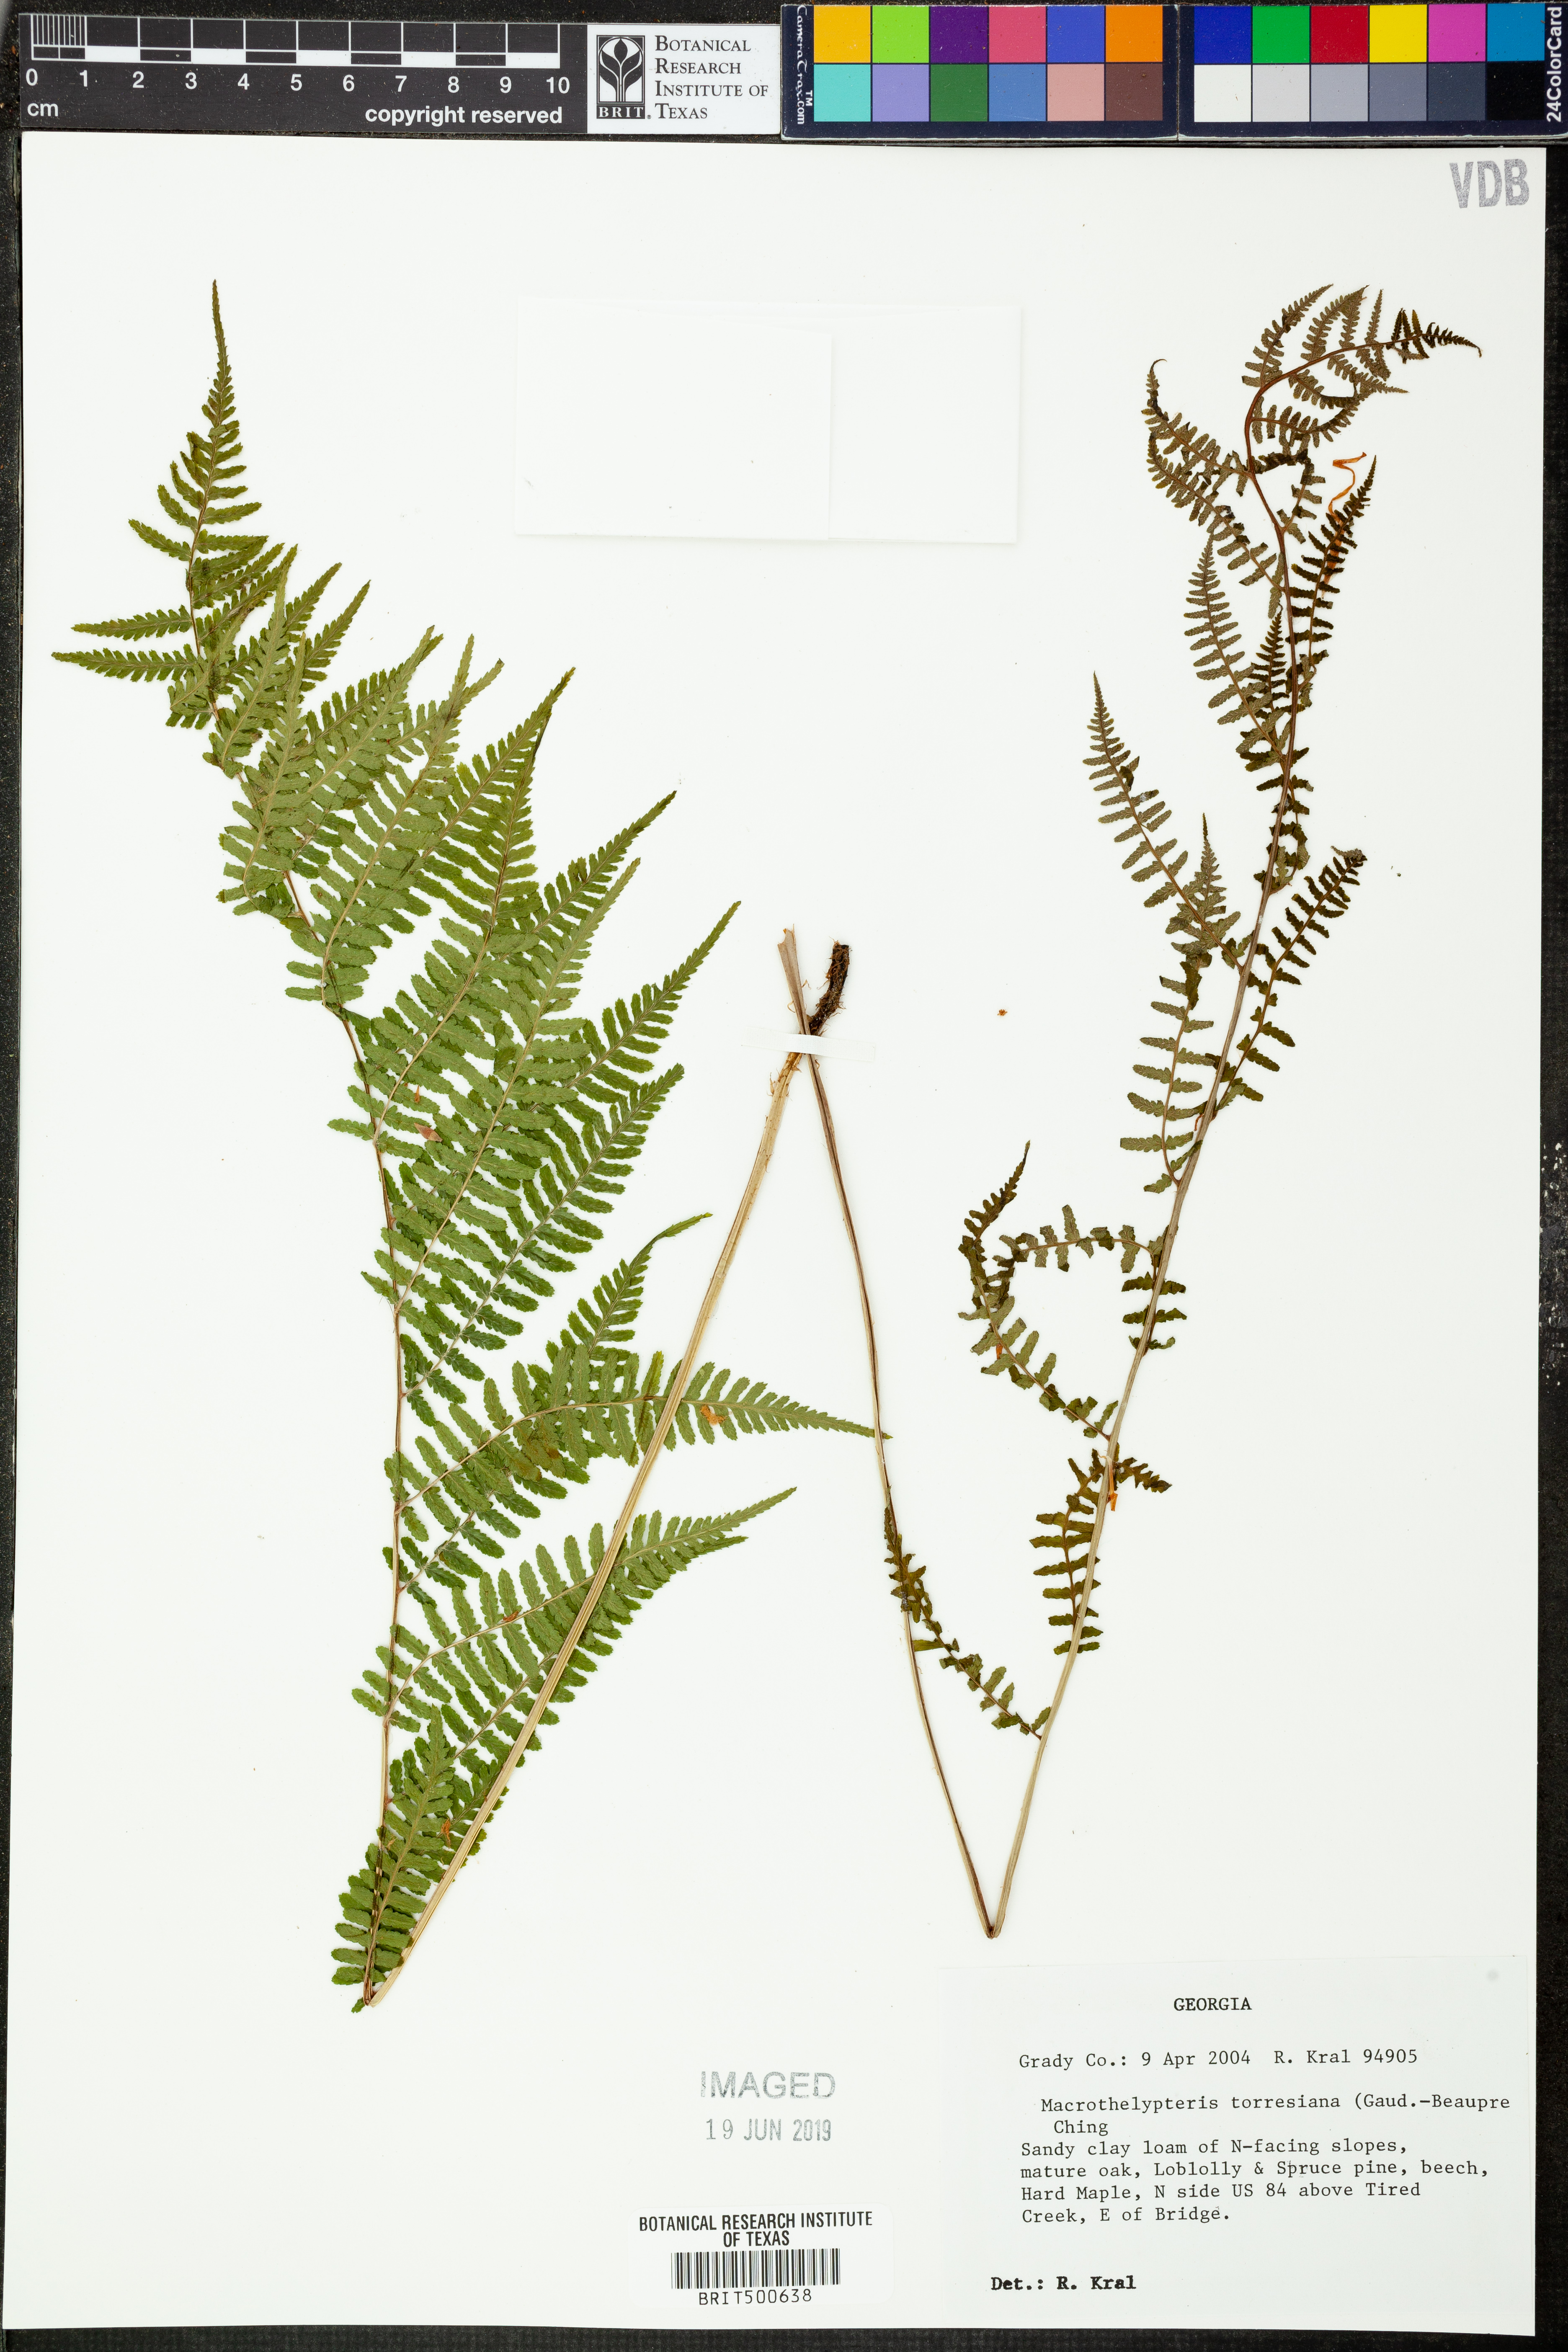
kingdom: Plantae
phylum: Tracheophyta
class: Polypodiopsida
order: Polypodiales
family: Thelypteridaceae
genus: Macrothelypteris
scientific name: Macrothelypteris torresiana
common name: Swordfern
